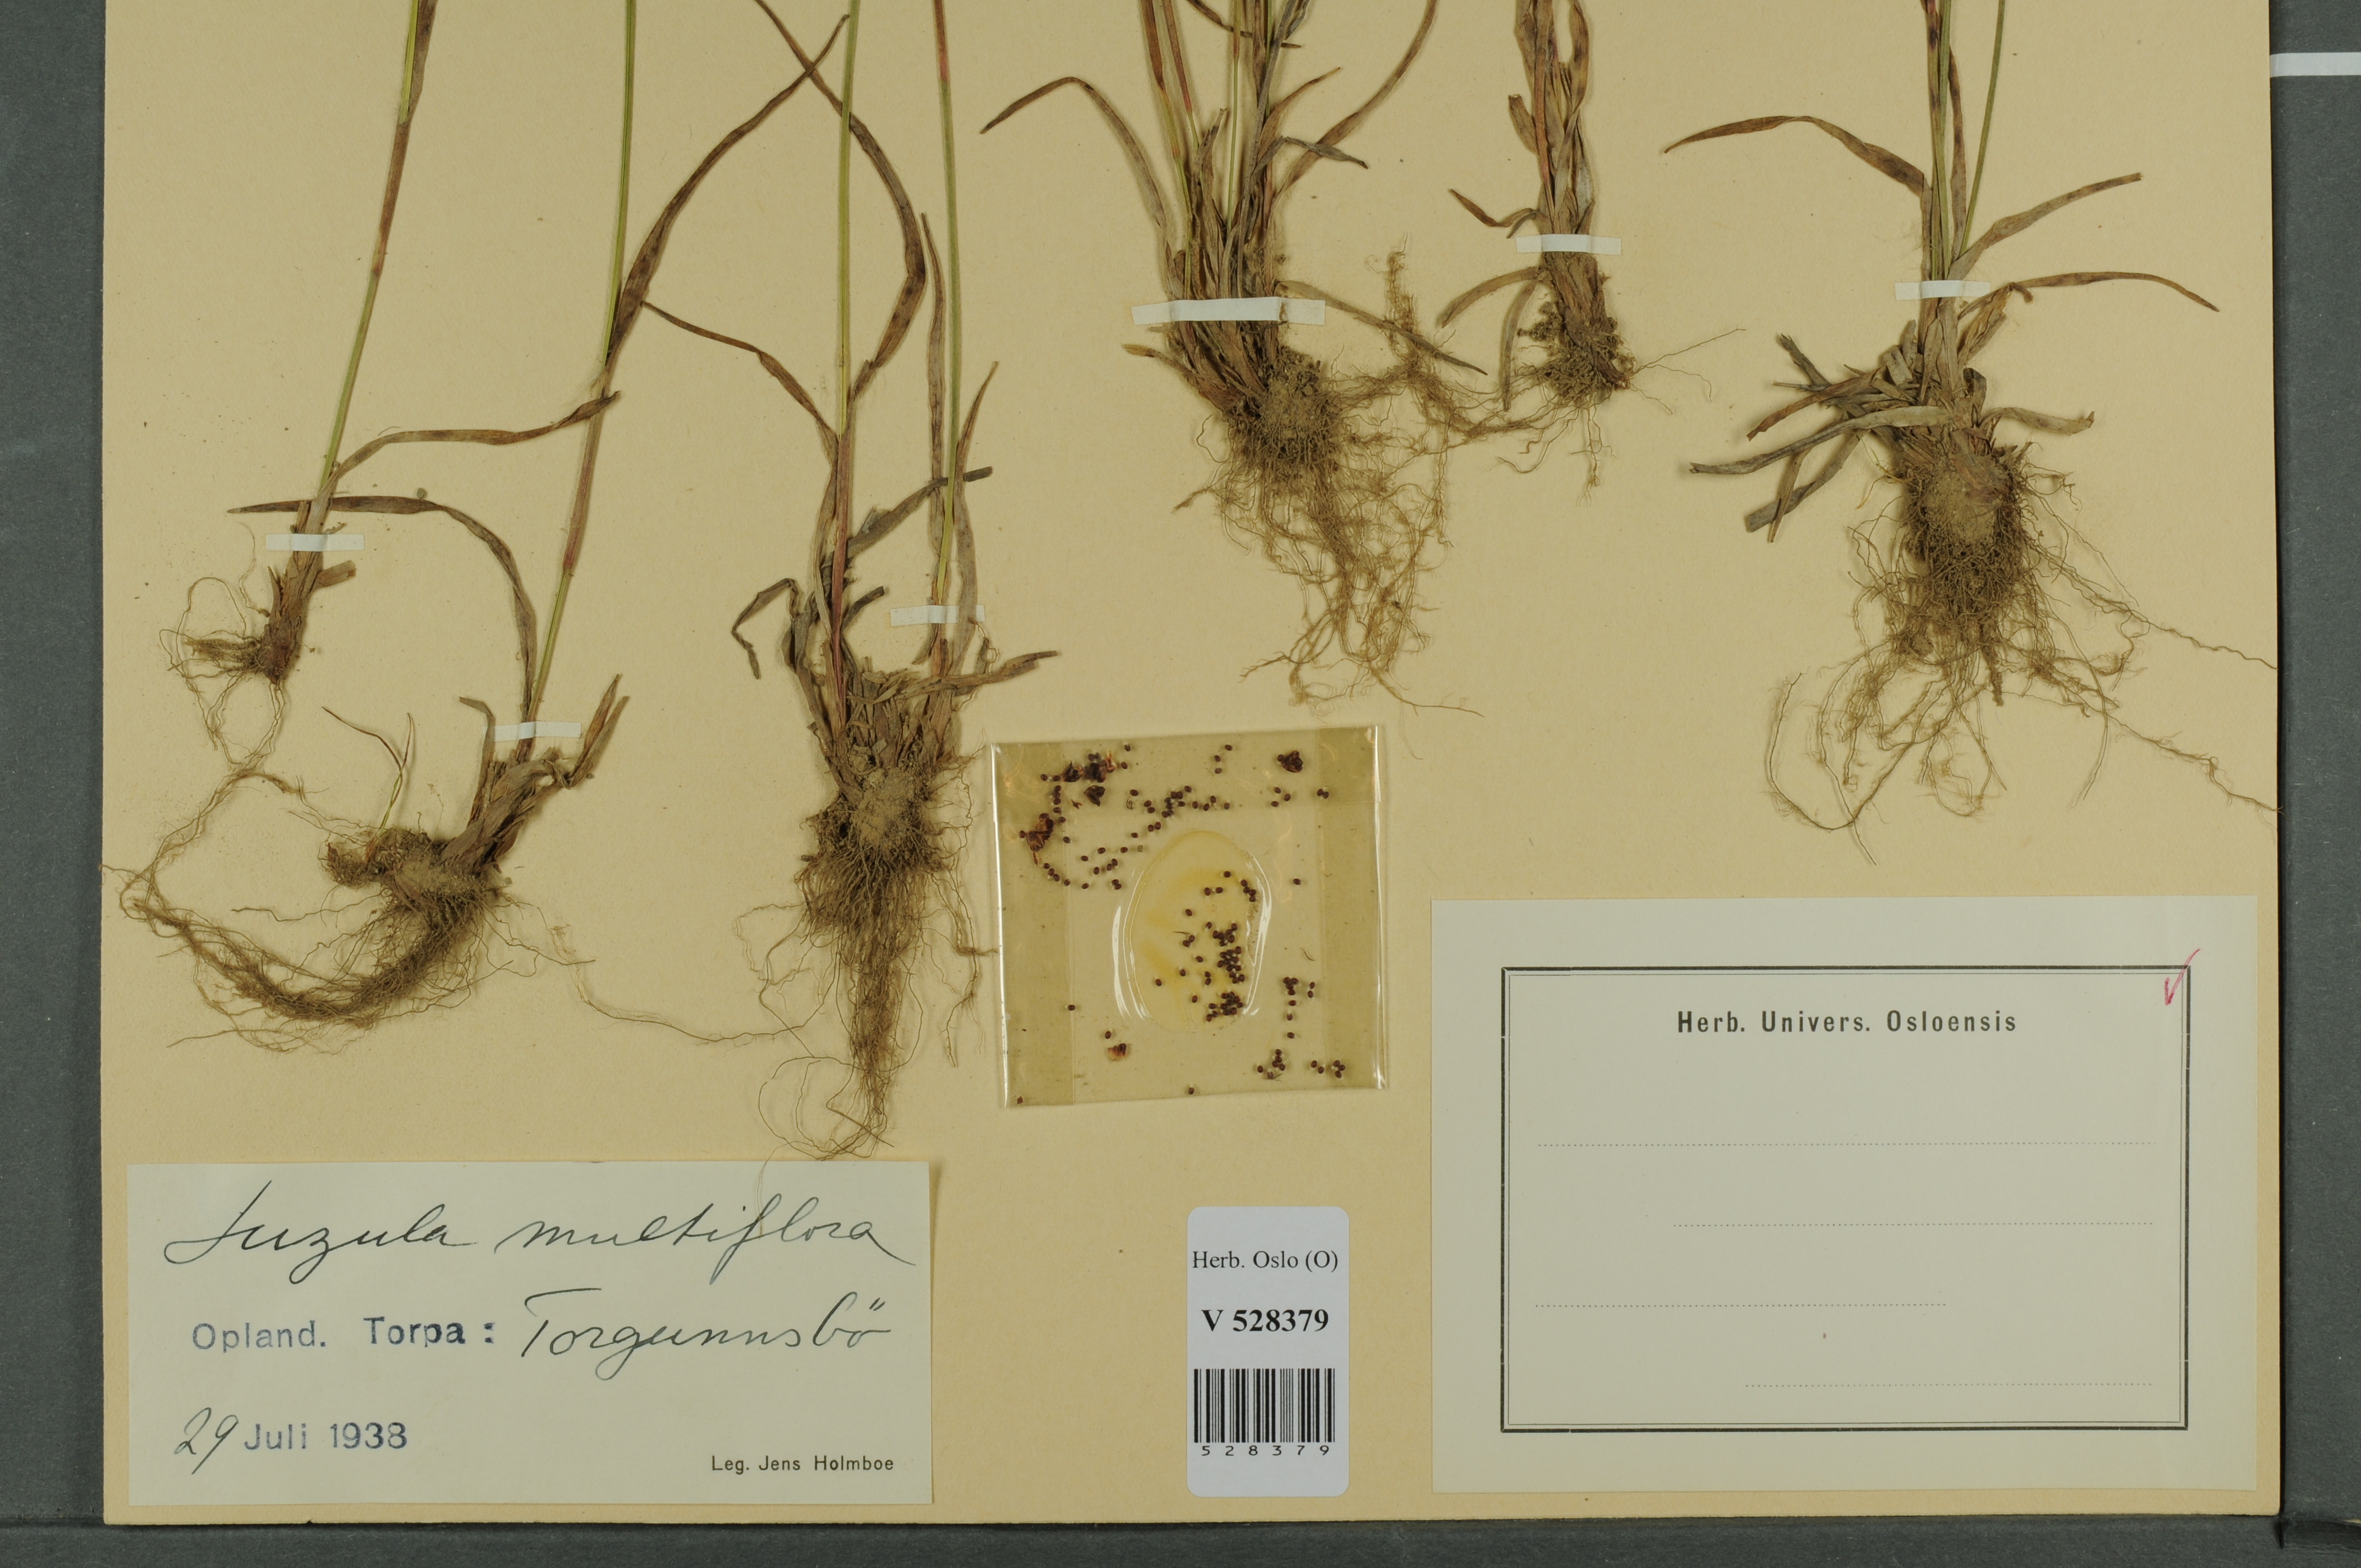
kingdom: Plantae
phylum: Tracheophyta
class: Liliopsida
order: Poales
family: Juncaceae
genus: Luzula
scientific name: Luzula multiflora
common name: Heath wood-rush
